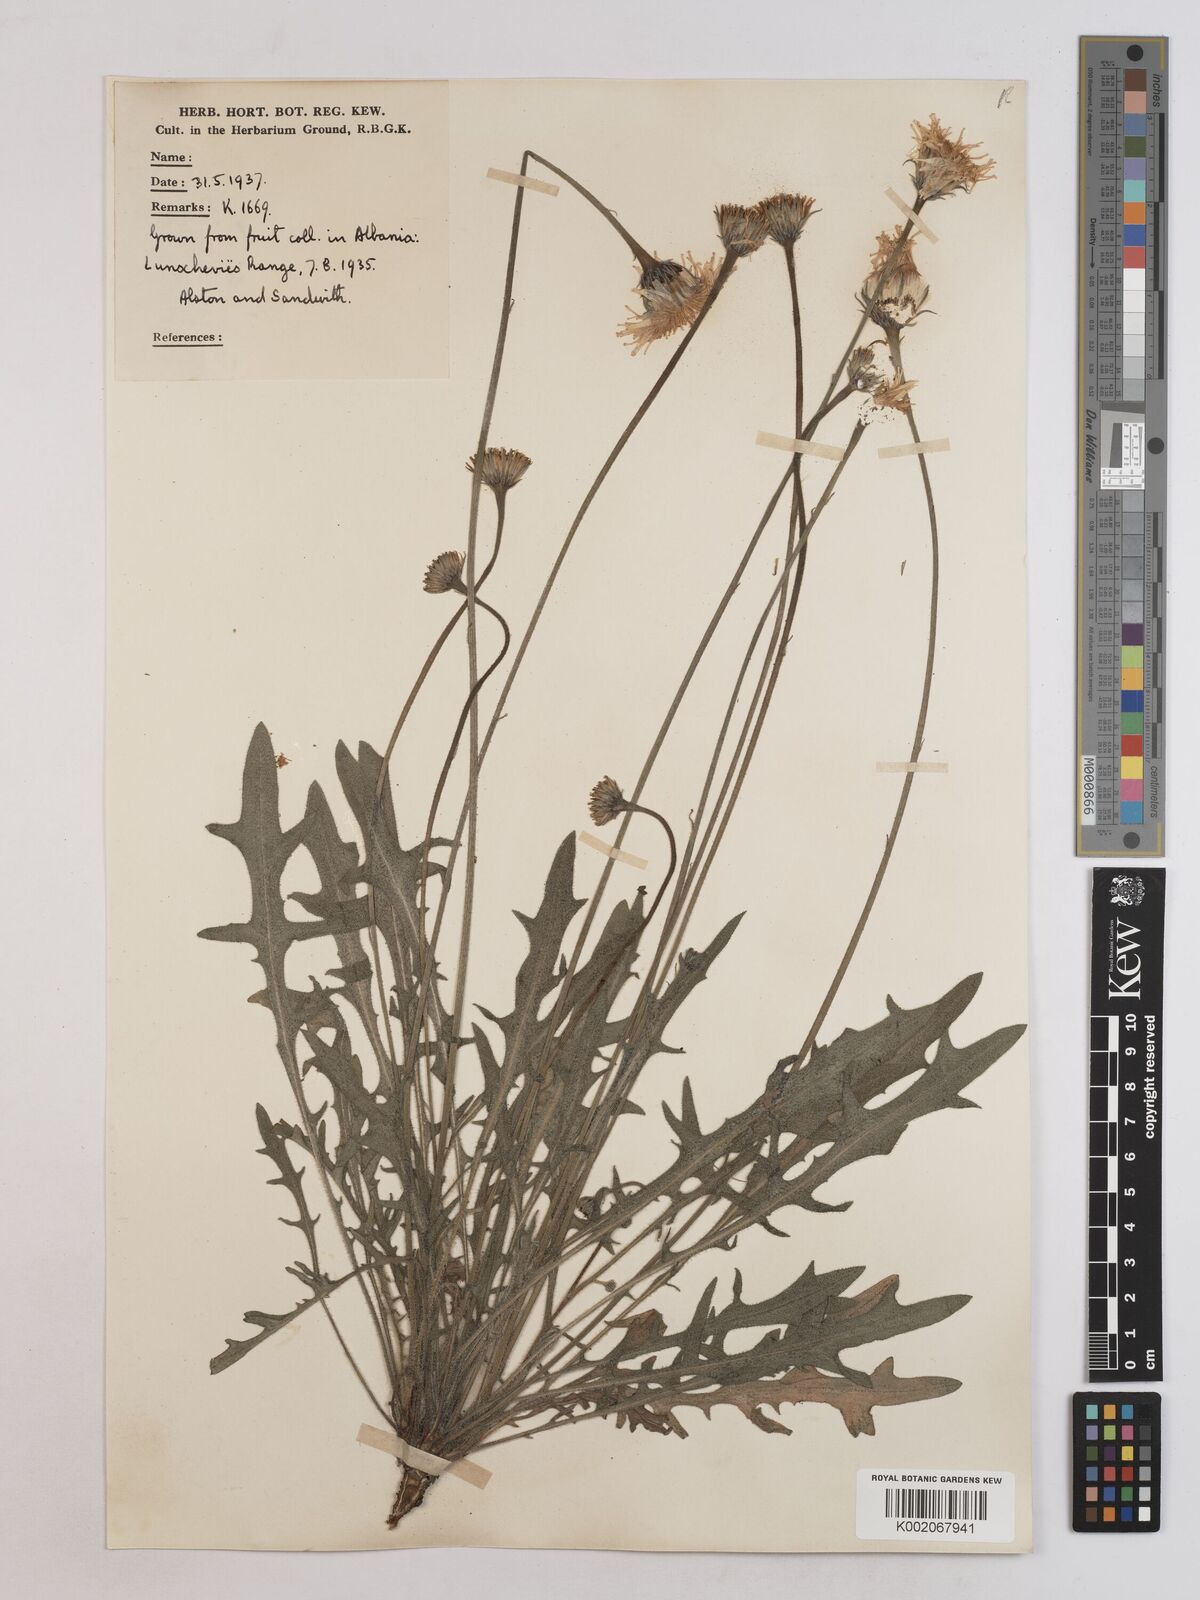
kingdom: Plantae
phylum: Tracheophyta
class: Magnoliopsida
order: Asterales
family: Asteraceae
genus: Leontodon
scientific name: Leontodon crispus
